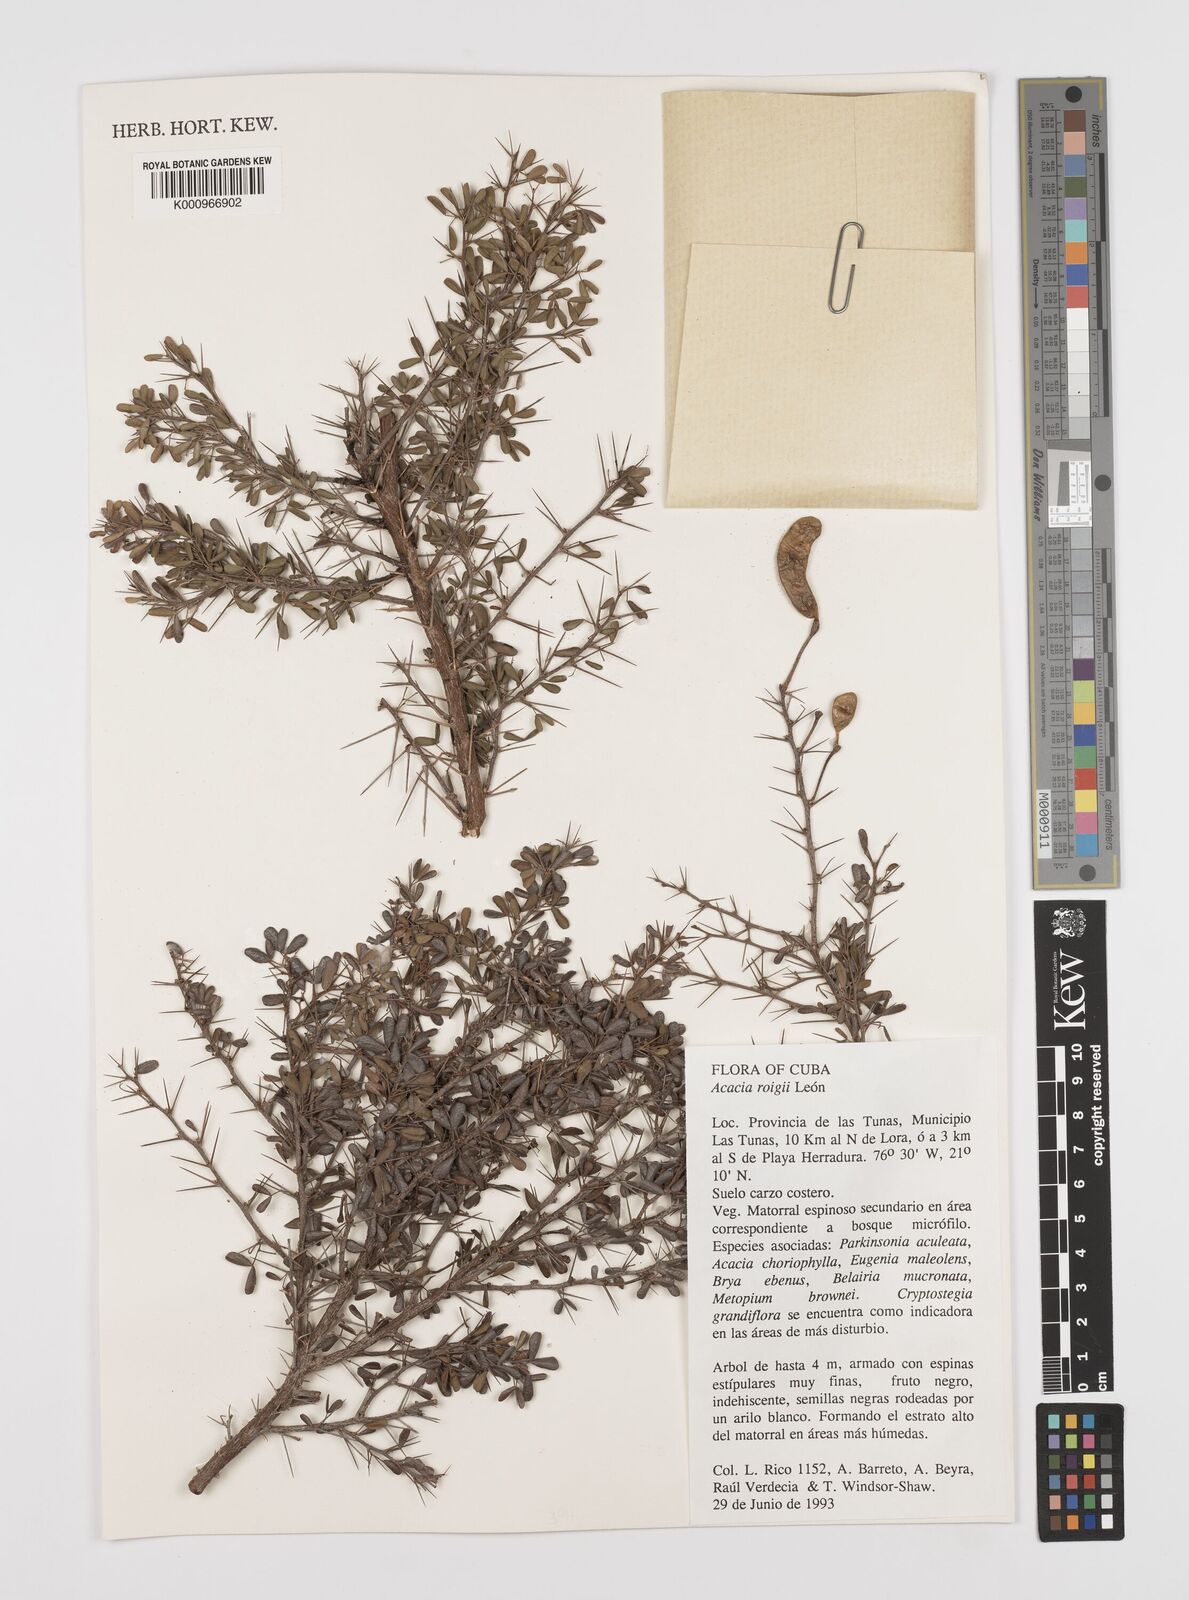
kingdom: Plantae
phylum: Tracheophyta
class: Magnoliopsida
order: Fabales
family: Fabaceae
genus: Acacia
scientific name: Acacia
